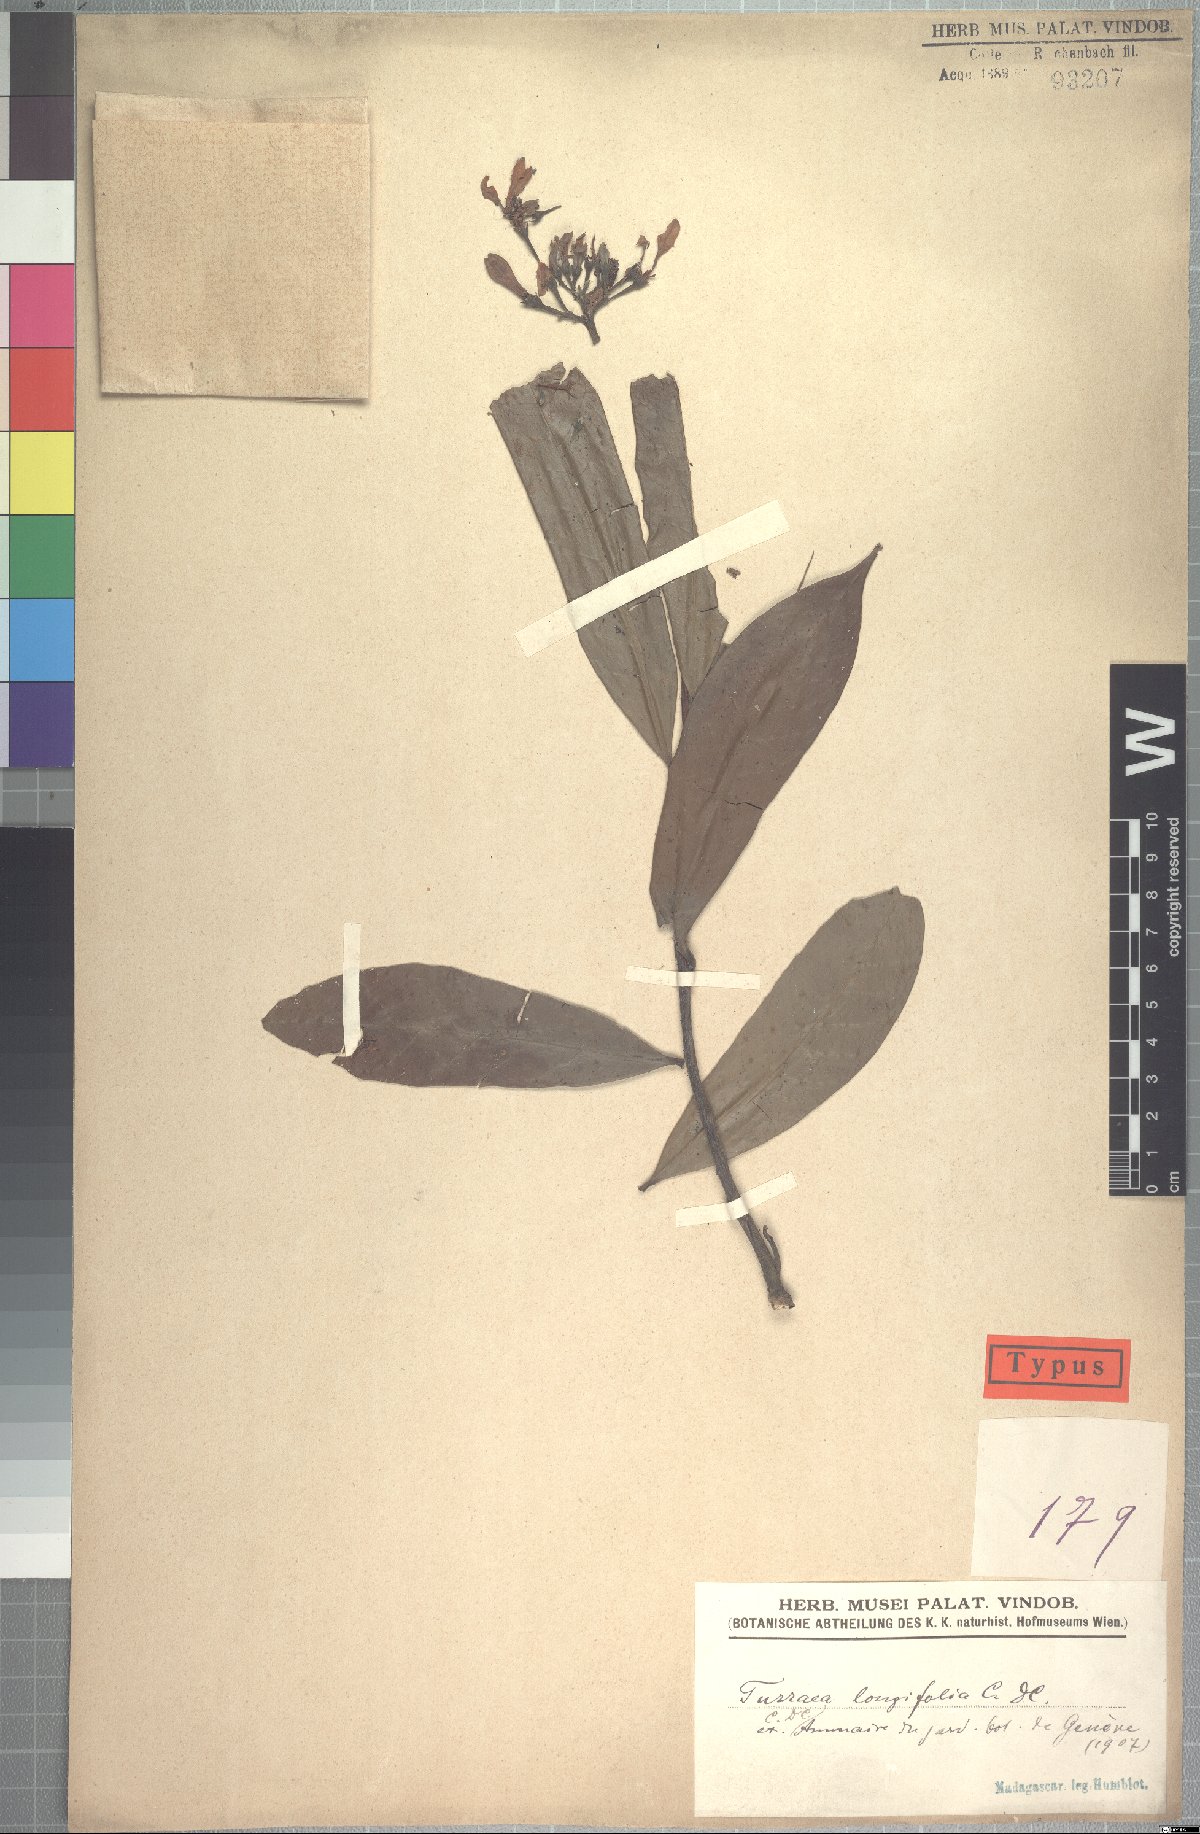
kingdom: Plantae
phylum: Tracheophyta
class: Magnoliopsida
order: Sapindales
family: Meliaceae
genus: Turraea
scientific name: Turraea longifolia
